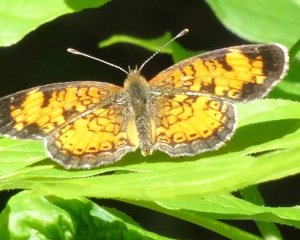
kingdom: Animalia
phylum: Arthropoda
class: Insecta
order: Lepidoptera
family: Nymphalidae
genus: Phyciodes
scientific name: Phyciodes tharos
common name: Northern Crescent
